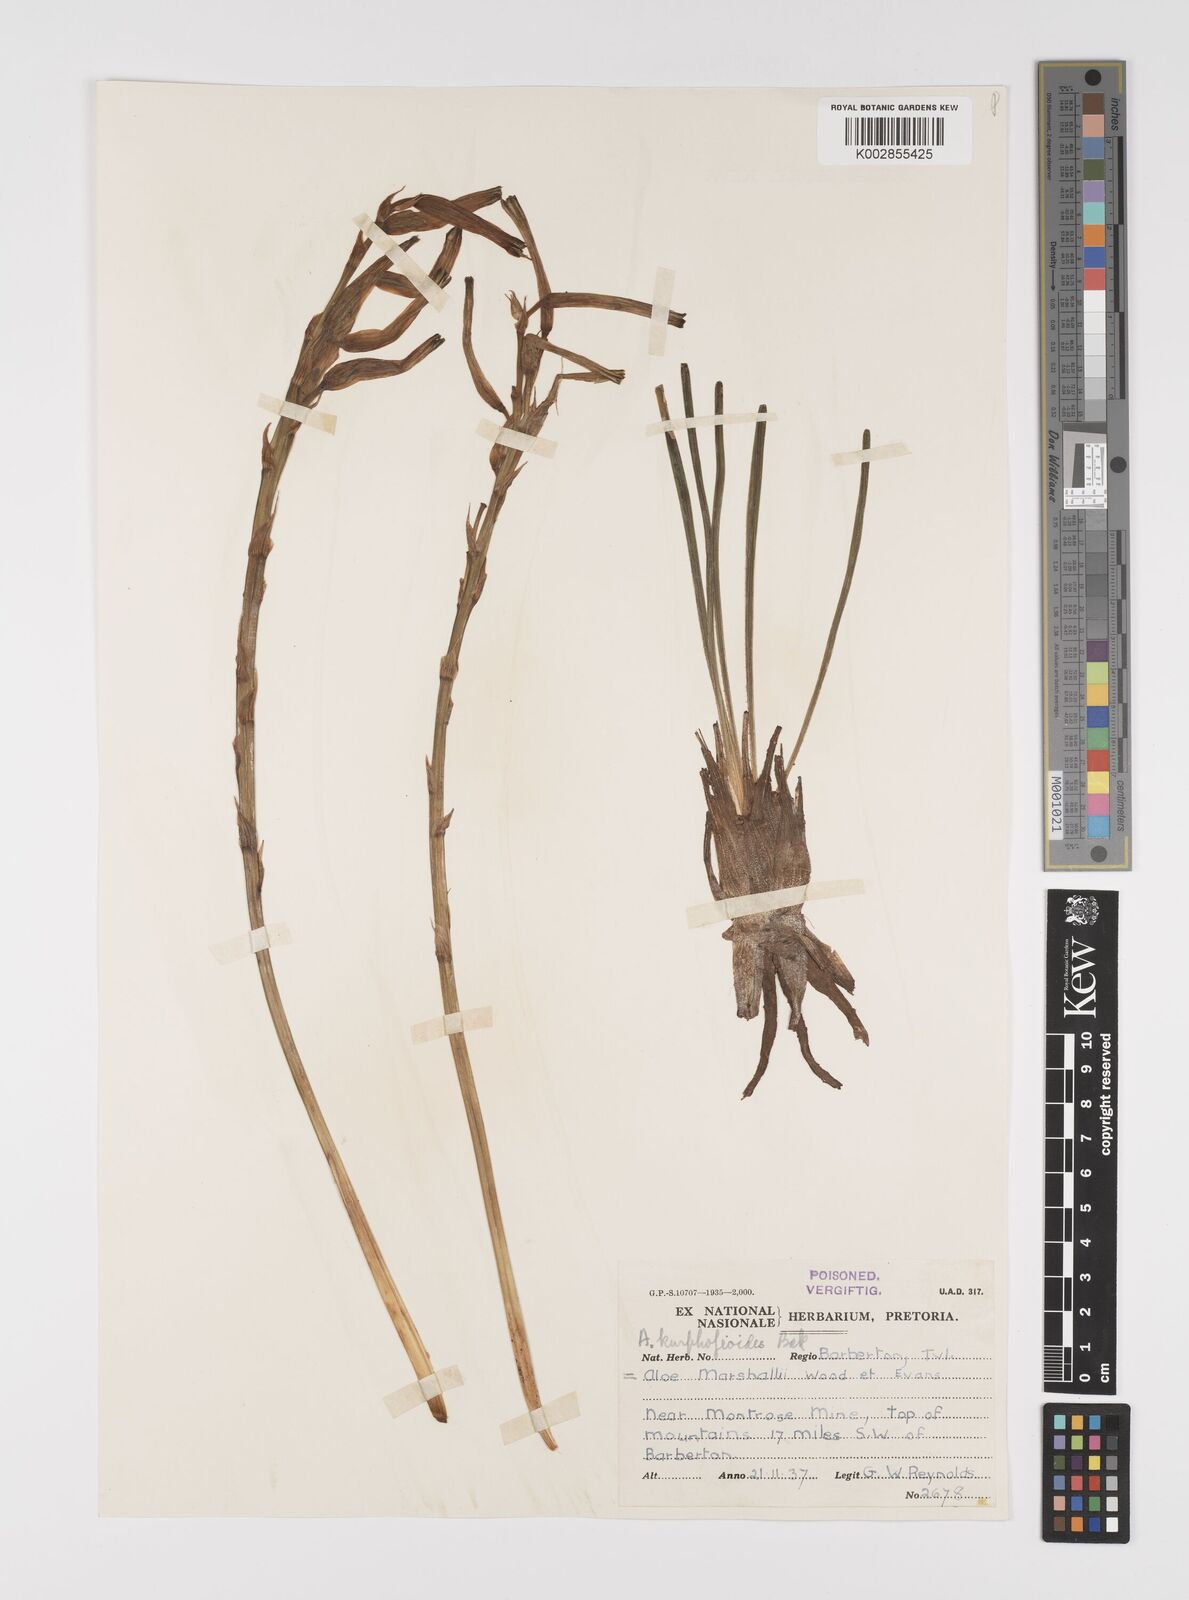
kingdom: Plantae
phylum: Tracheophyta
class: Liliopsida
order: Asparagales
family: Asphodelaceae
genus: Aloe
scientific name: Aloe kniphofioides
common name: Grass aloe
